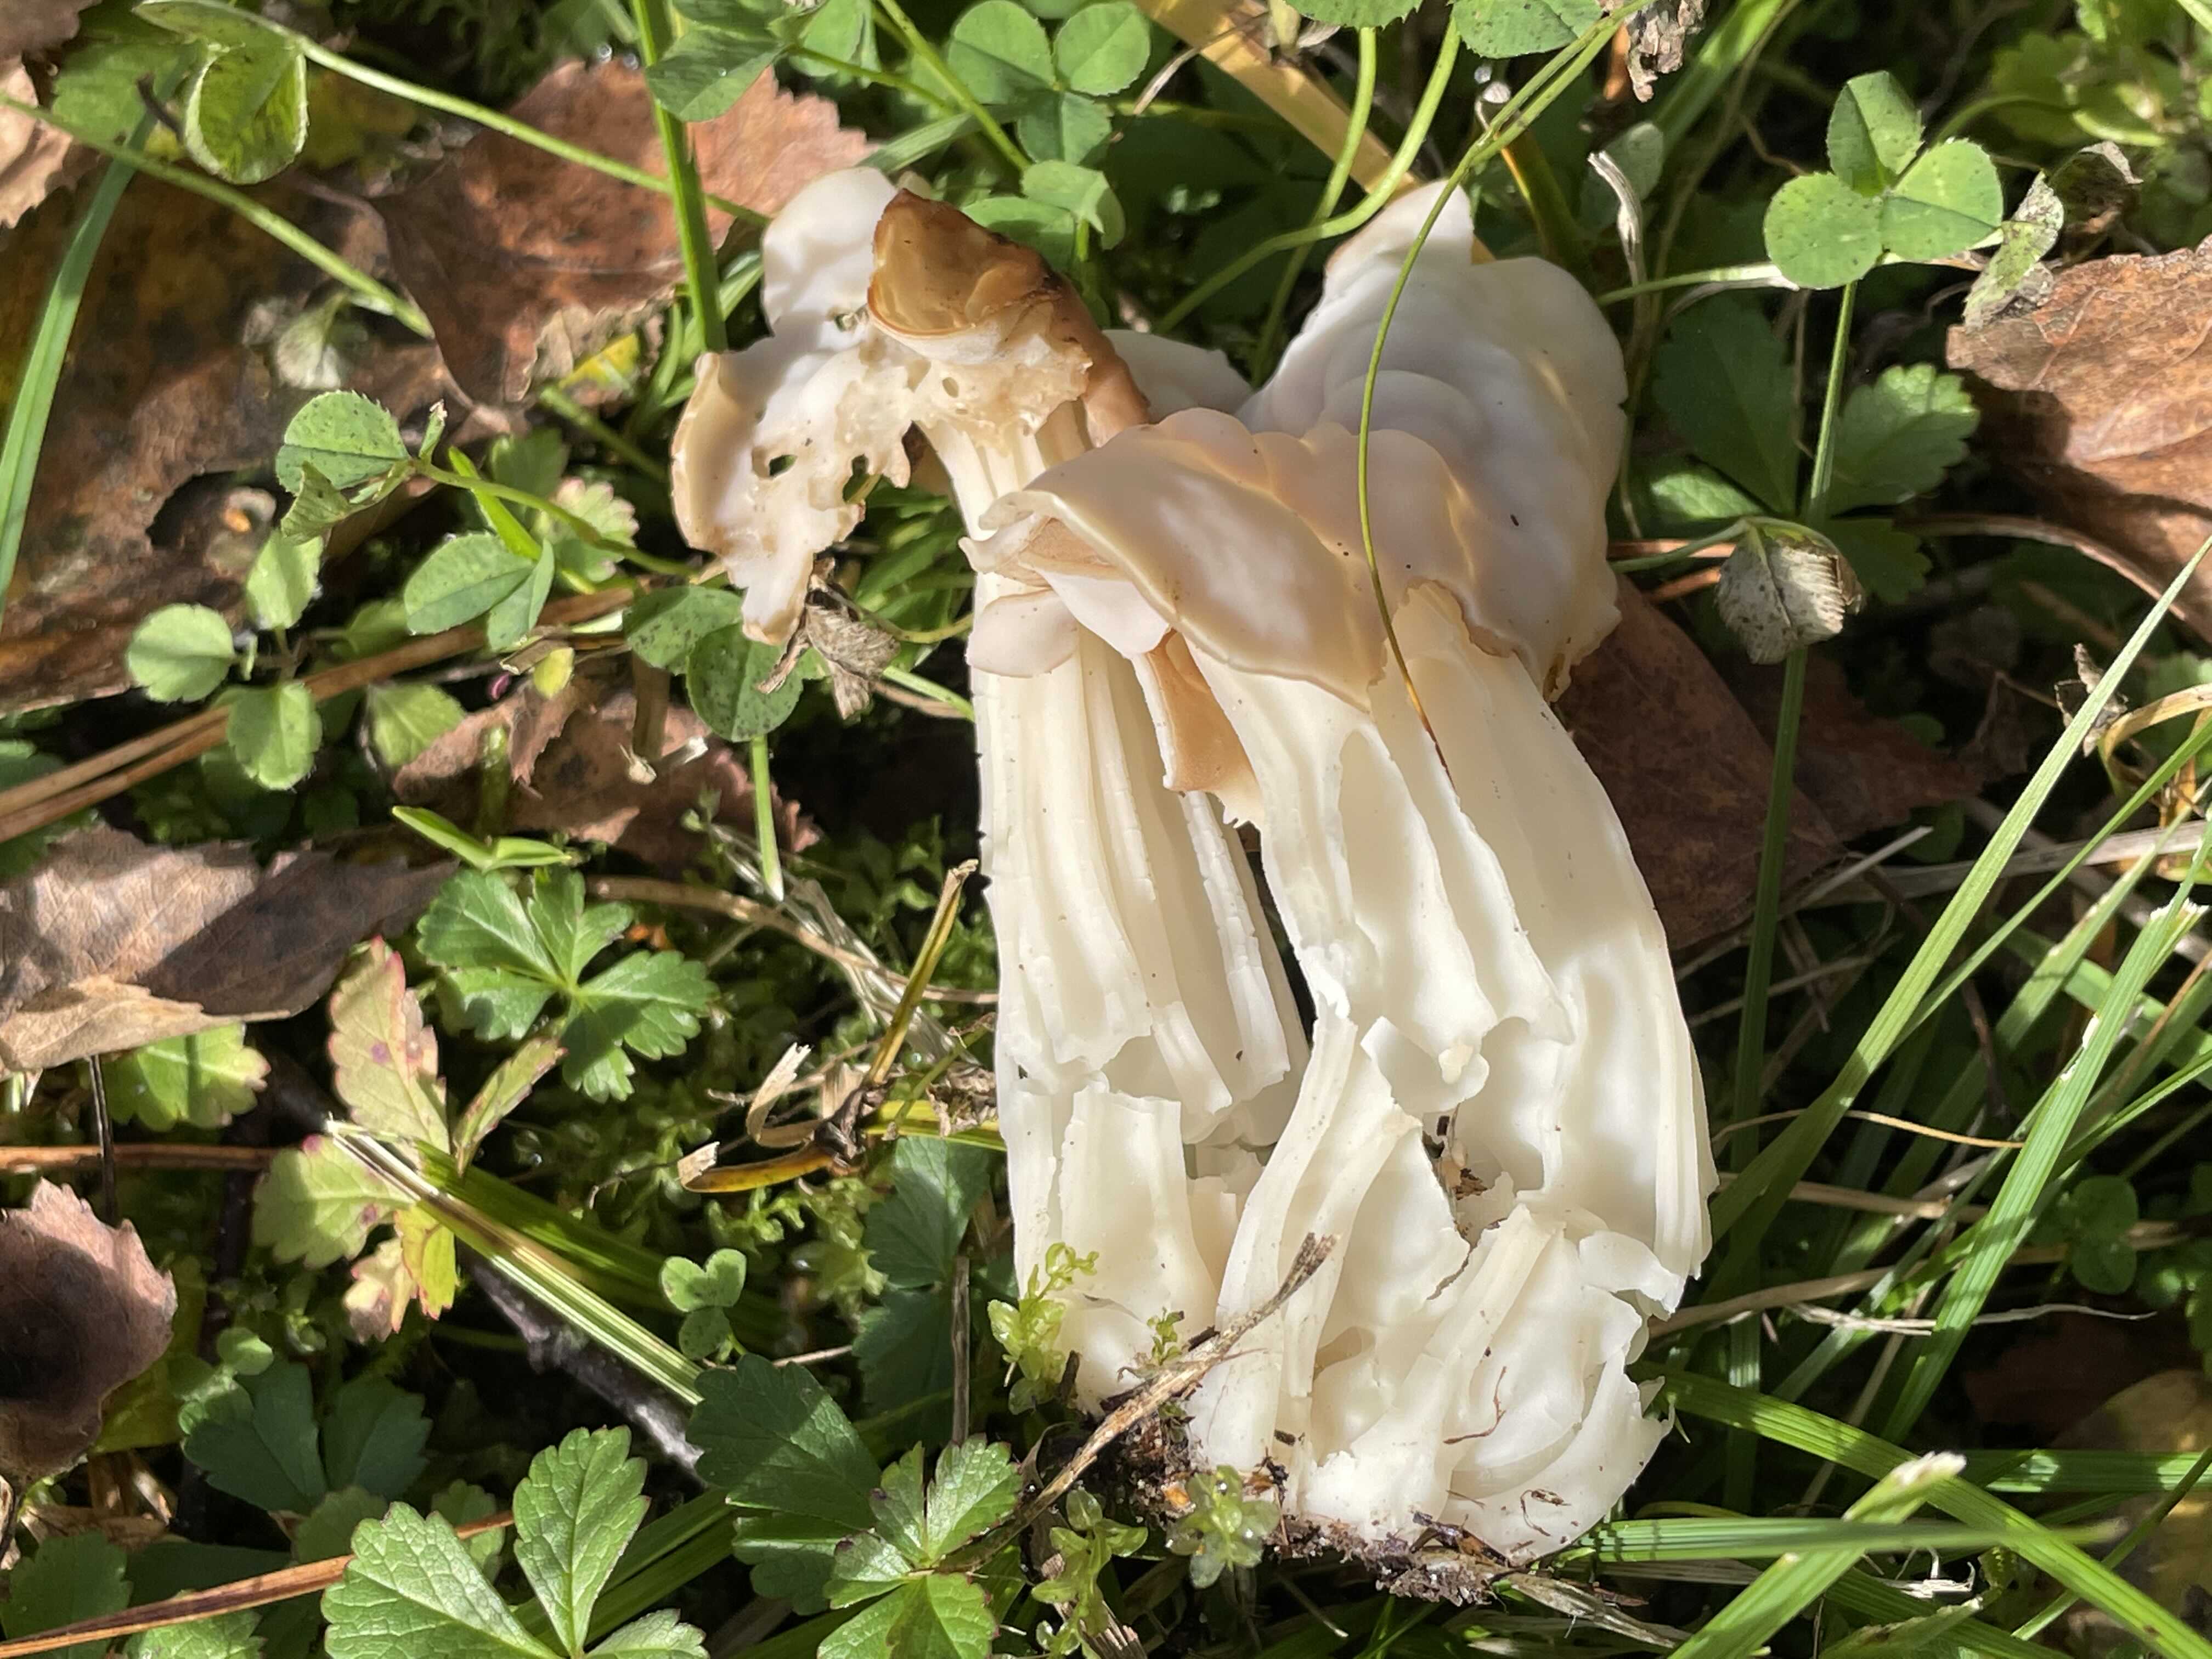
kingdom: Fungi
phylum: Ascomycota
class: Pezizomycetes
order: Pezizales
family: Helvellaceae
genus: Helvella
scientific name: Helvella crispa
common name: kruset foldhat
